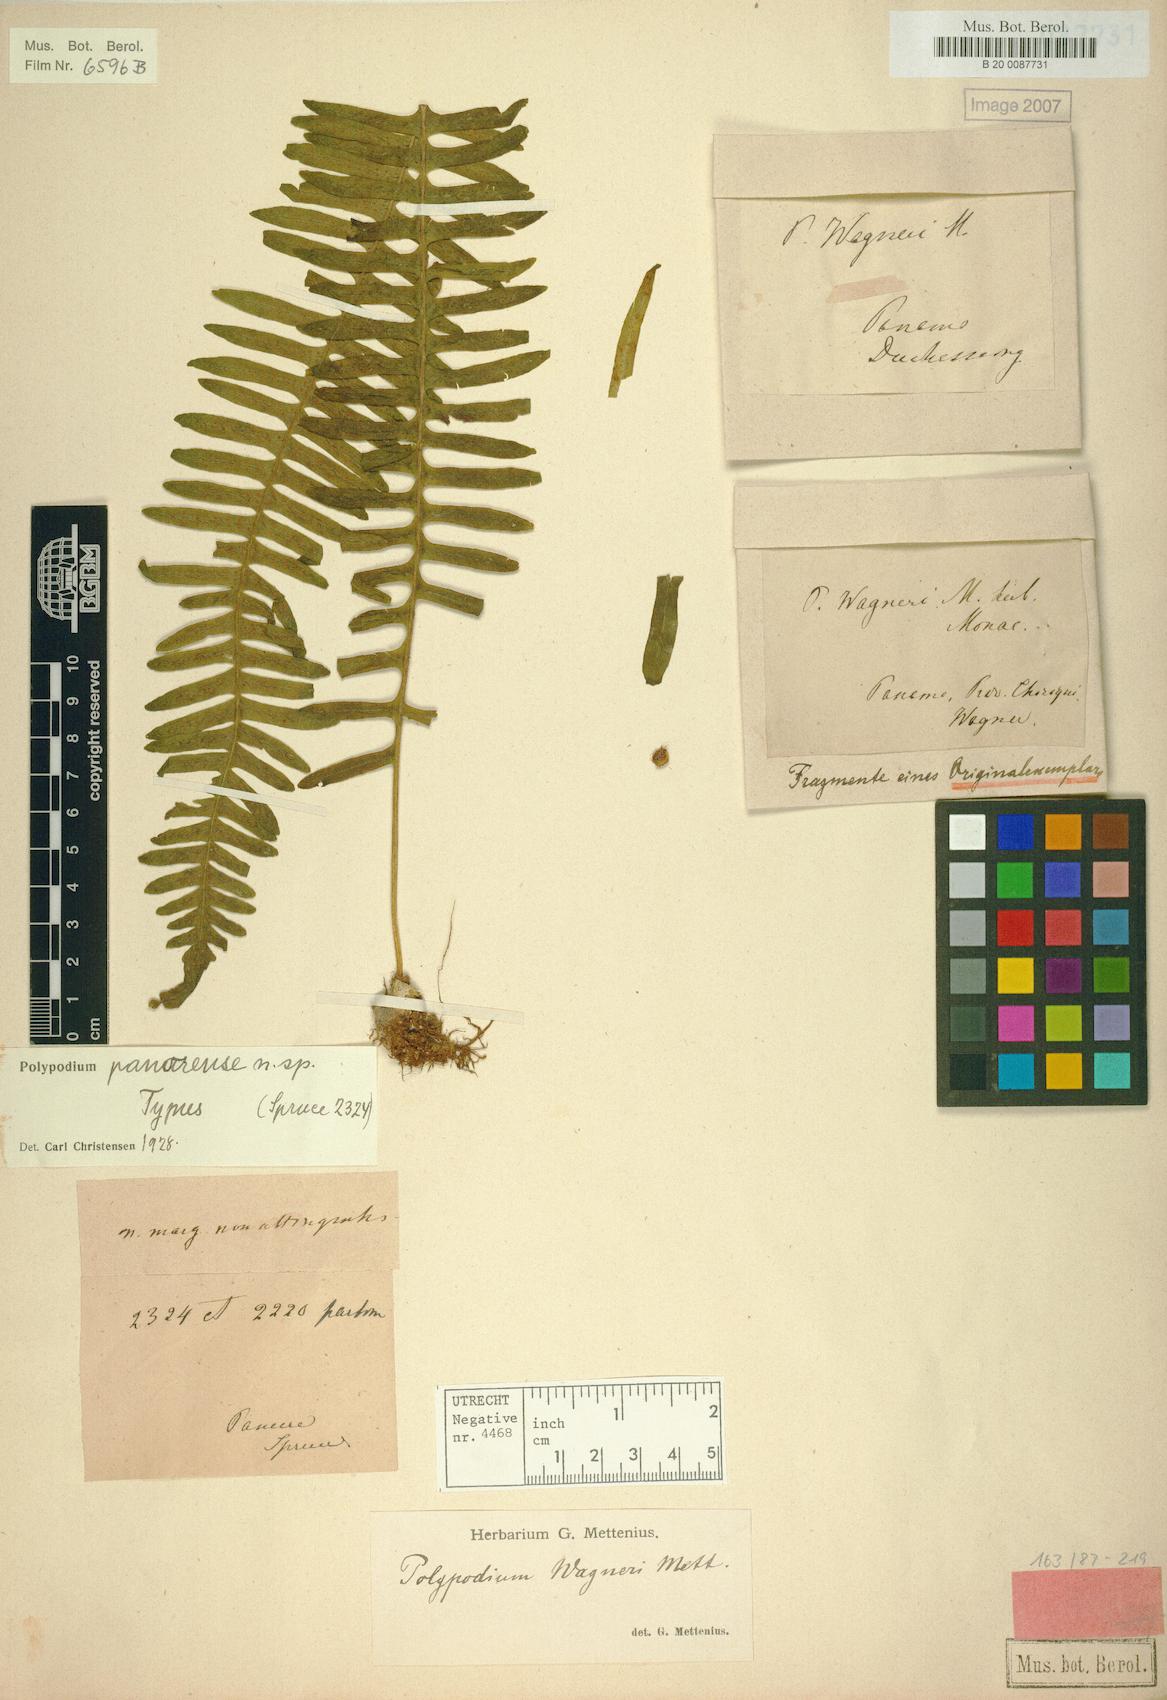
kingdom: Plantae
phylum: Tracheophyta
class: Polypodiopsida
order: Polypodiales
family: Polypodiaceae
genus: Serpocaulon
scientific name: Serpocaulon panorense
